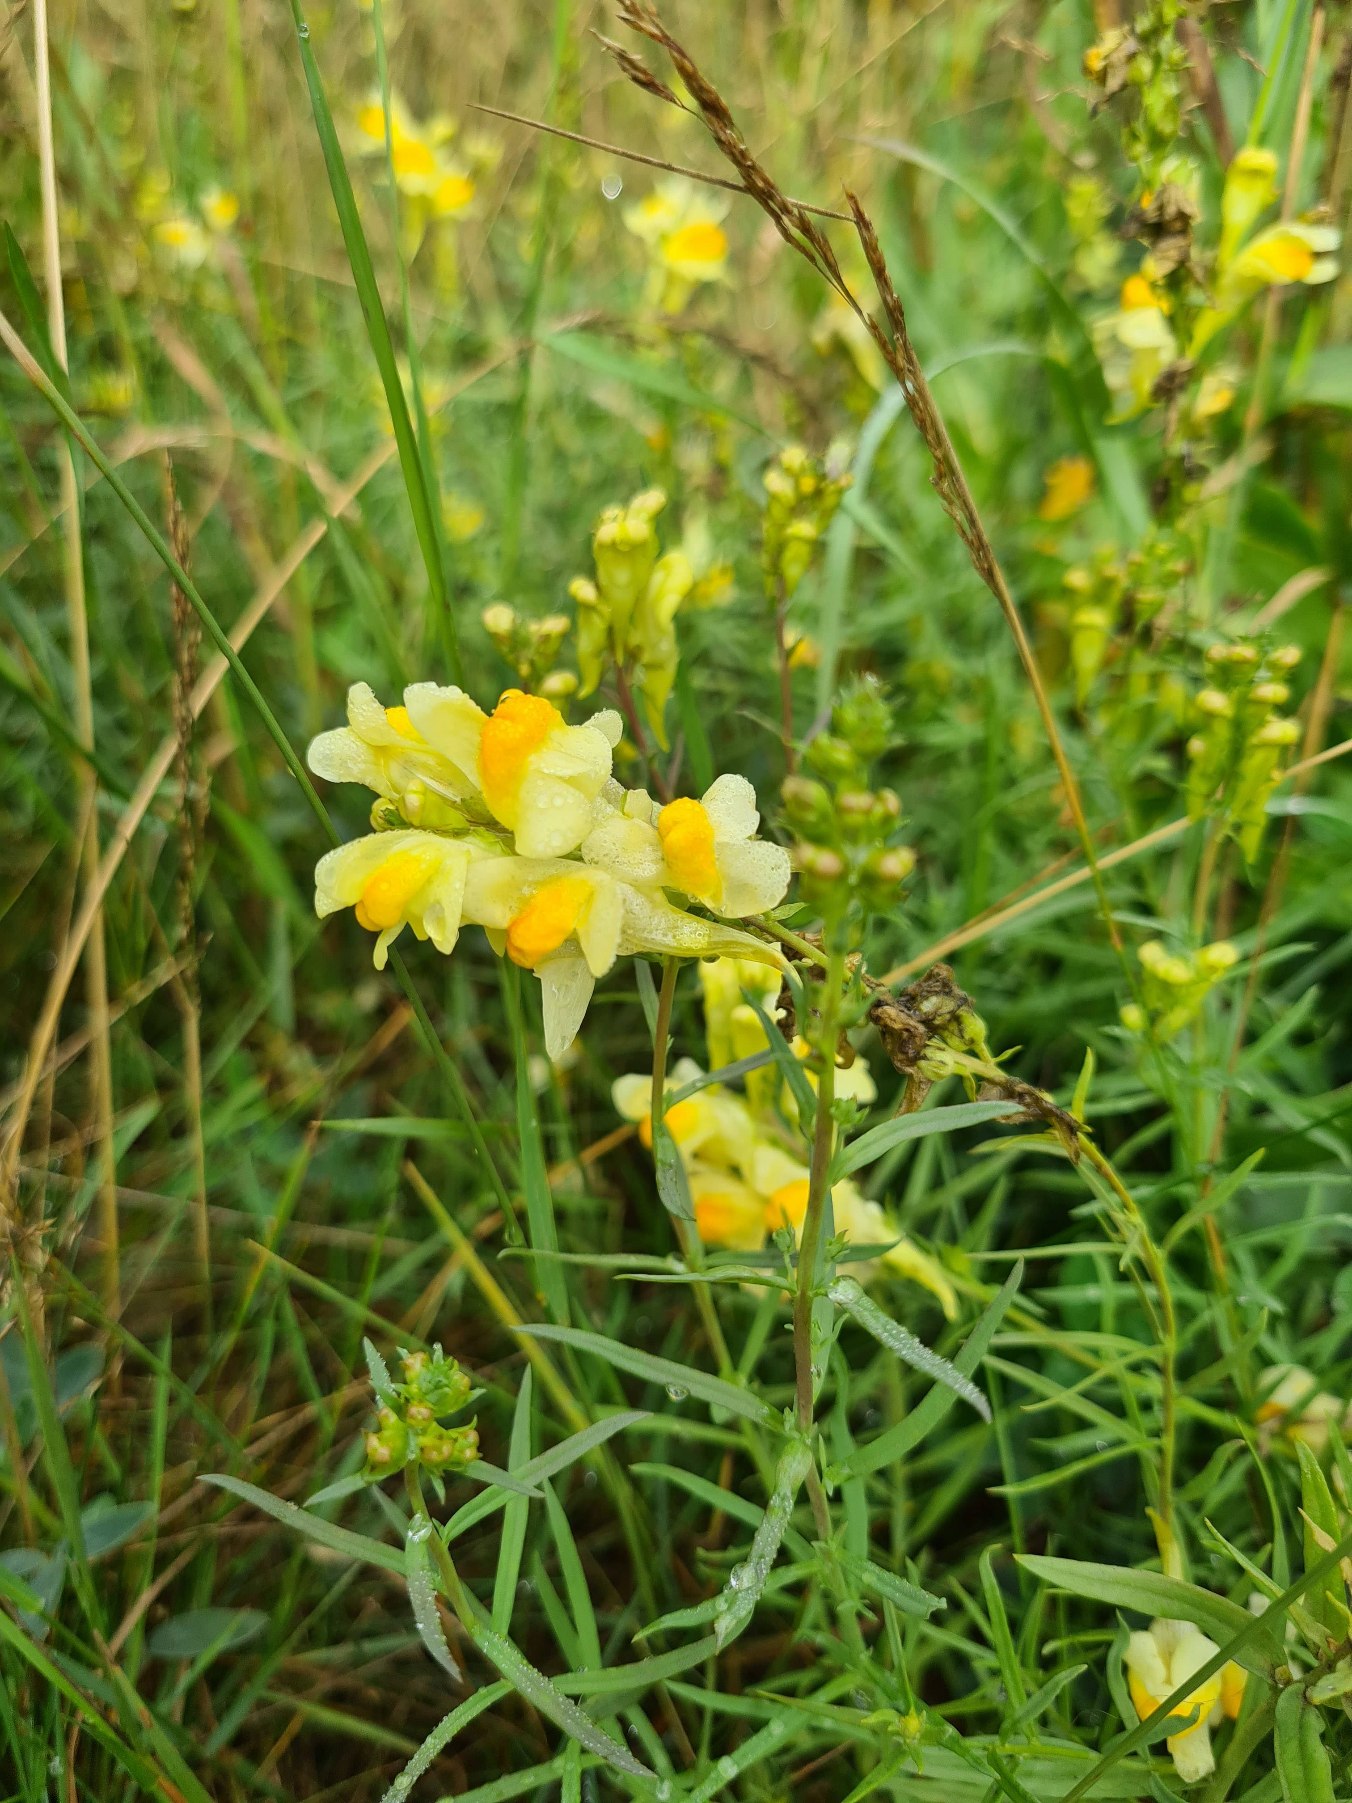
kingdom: Plantae
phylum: Tracheophyta
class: Magnoliopsida
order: Lamiales
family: Plantaginaceae
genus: Linaria
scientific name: Linaria vulgaris
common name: Almindelig torskemund
